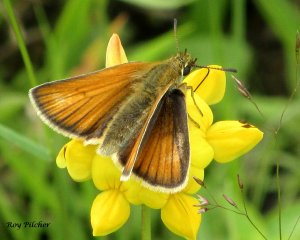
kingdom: Animalia
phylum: Arthropoda
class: Insecta
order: Lepidoptera
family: Hesperiidae
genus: Thymelicus
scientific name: Thymelicus lineola
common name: European Skipper
